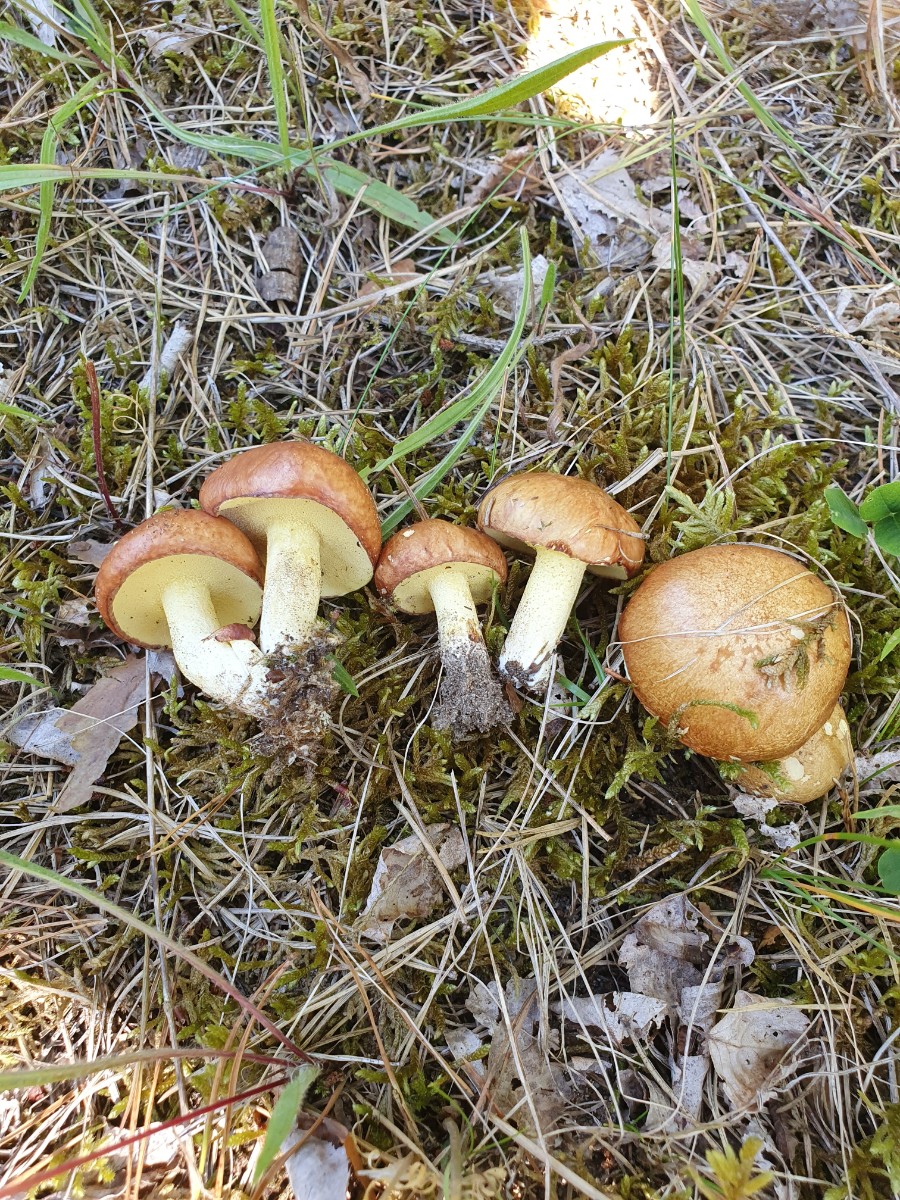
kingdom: Fungi
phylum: Basidiomycota
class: Agaricomycetes
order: Boletales
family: Suillaceae
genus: Suillus
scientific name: Suillus granulatus
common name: kornet slimrørhat
